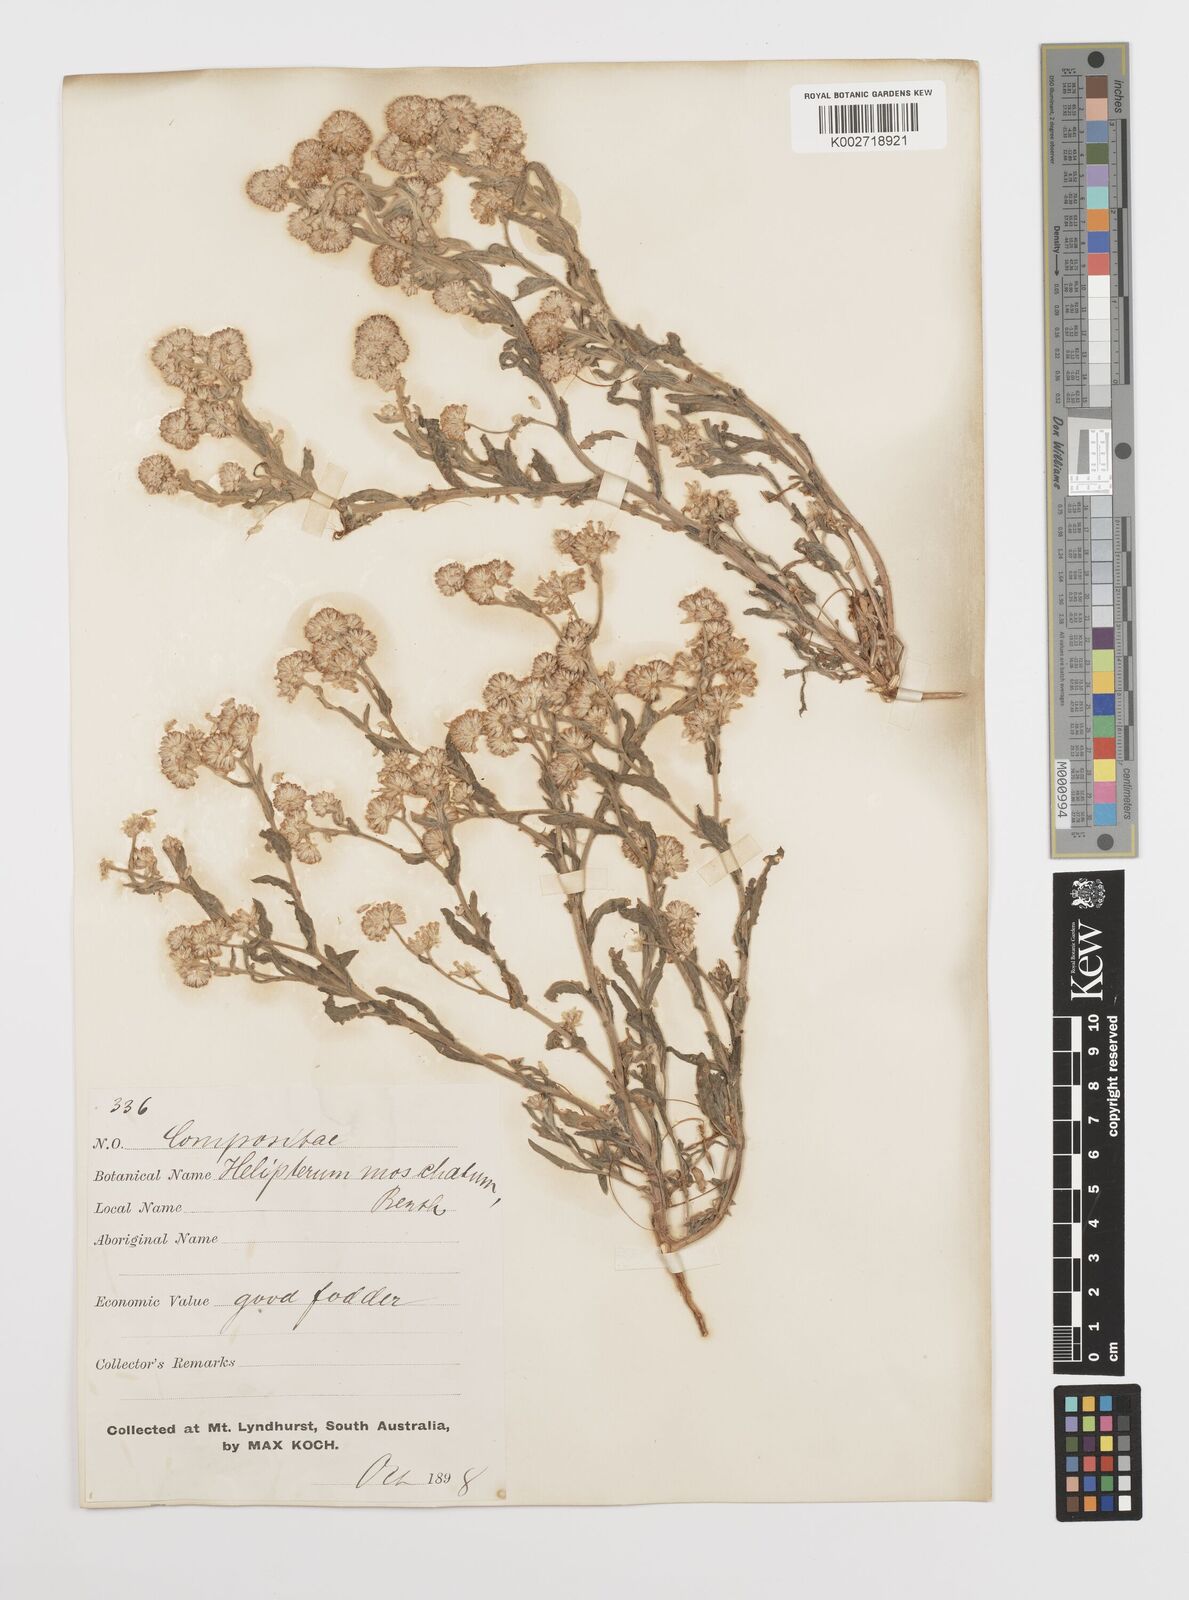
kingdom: Plantae
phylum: Tracheophyta
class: Magnoliopsida
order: Asterales
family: Asteraceae
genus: Rhodanthe
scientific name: Rhodanthe moschata
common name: Musk sunray
